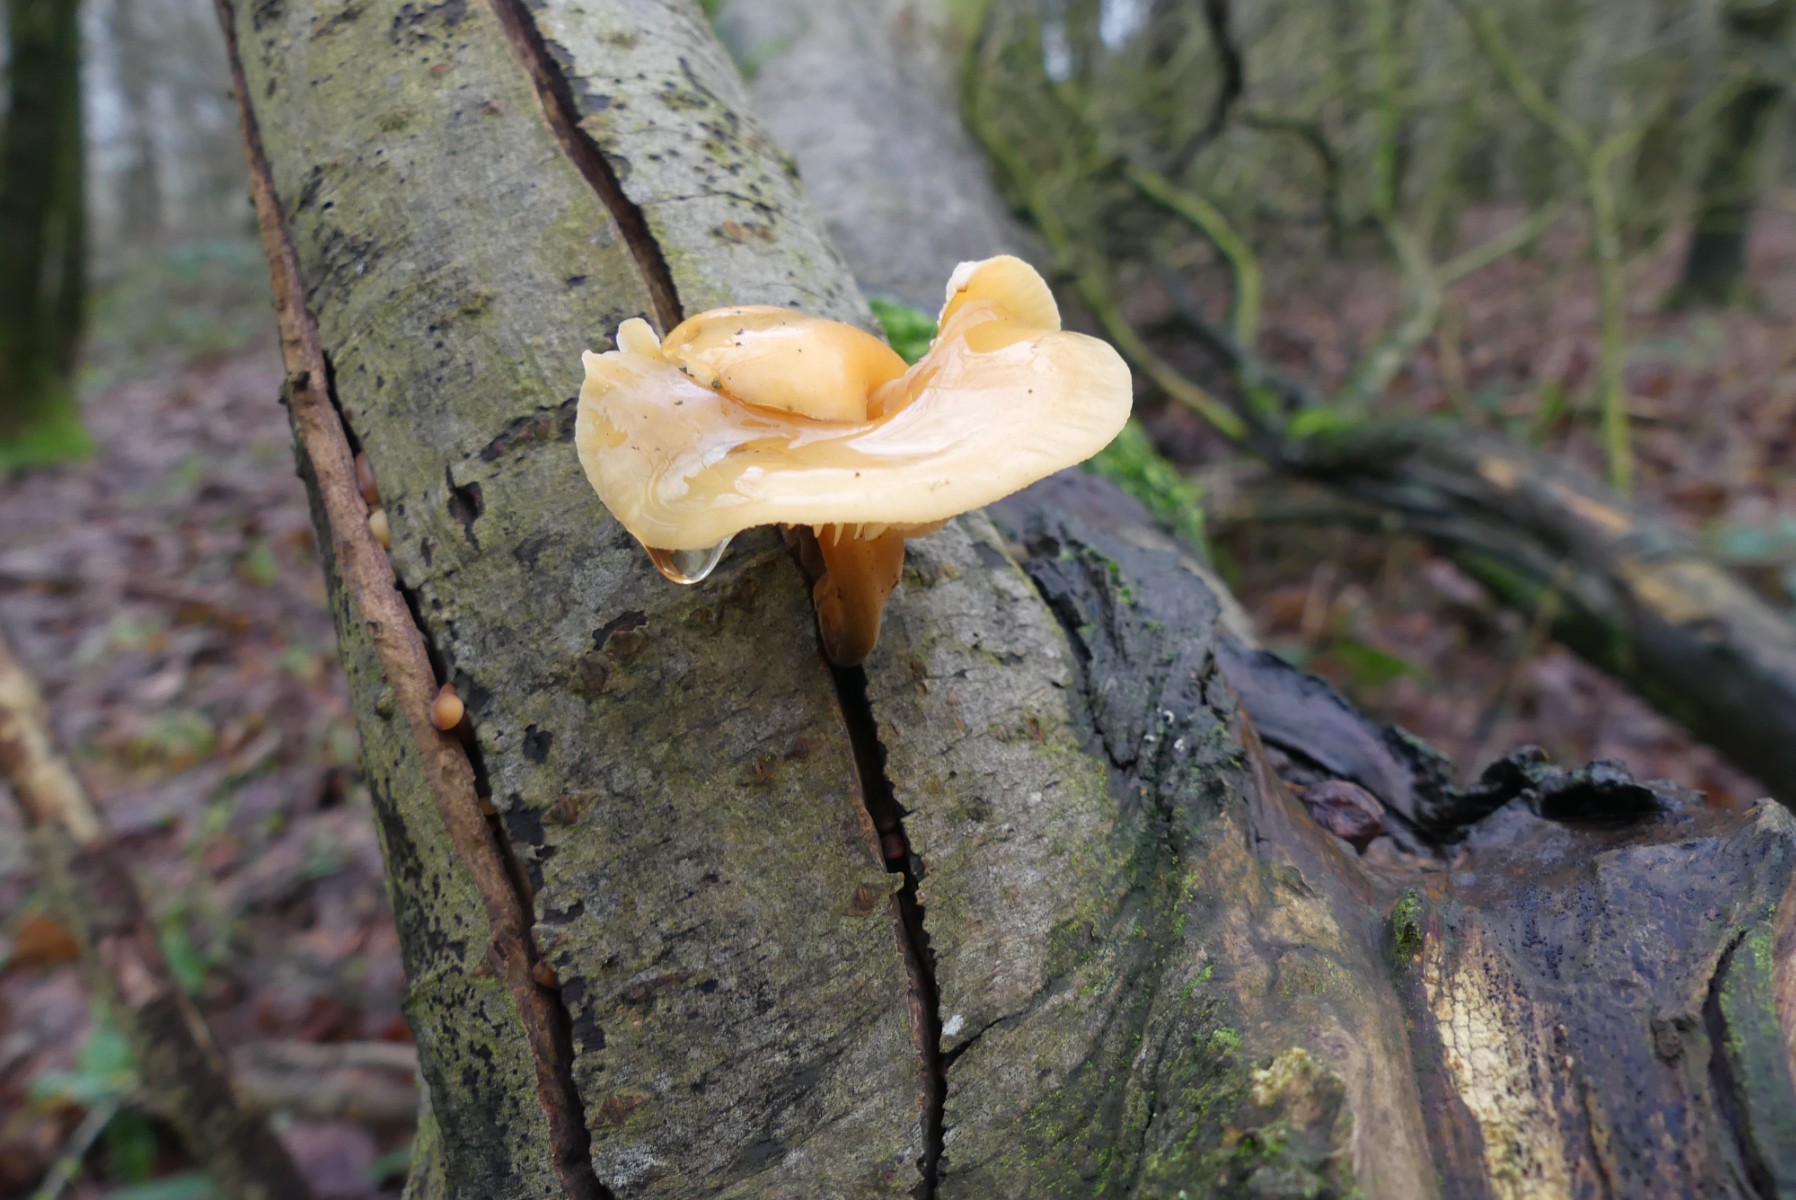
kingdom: Fungi
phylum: Basidiomycota
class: Agaricomycetes
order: Agaricales
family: Physalacriaceae
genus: Flammulina
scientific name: Flammulina velutipes
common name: gul fløjlsfod
